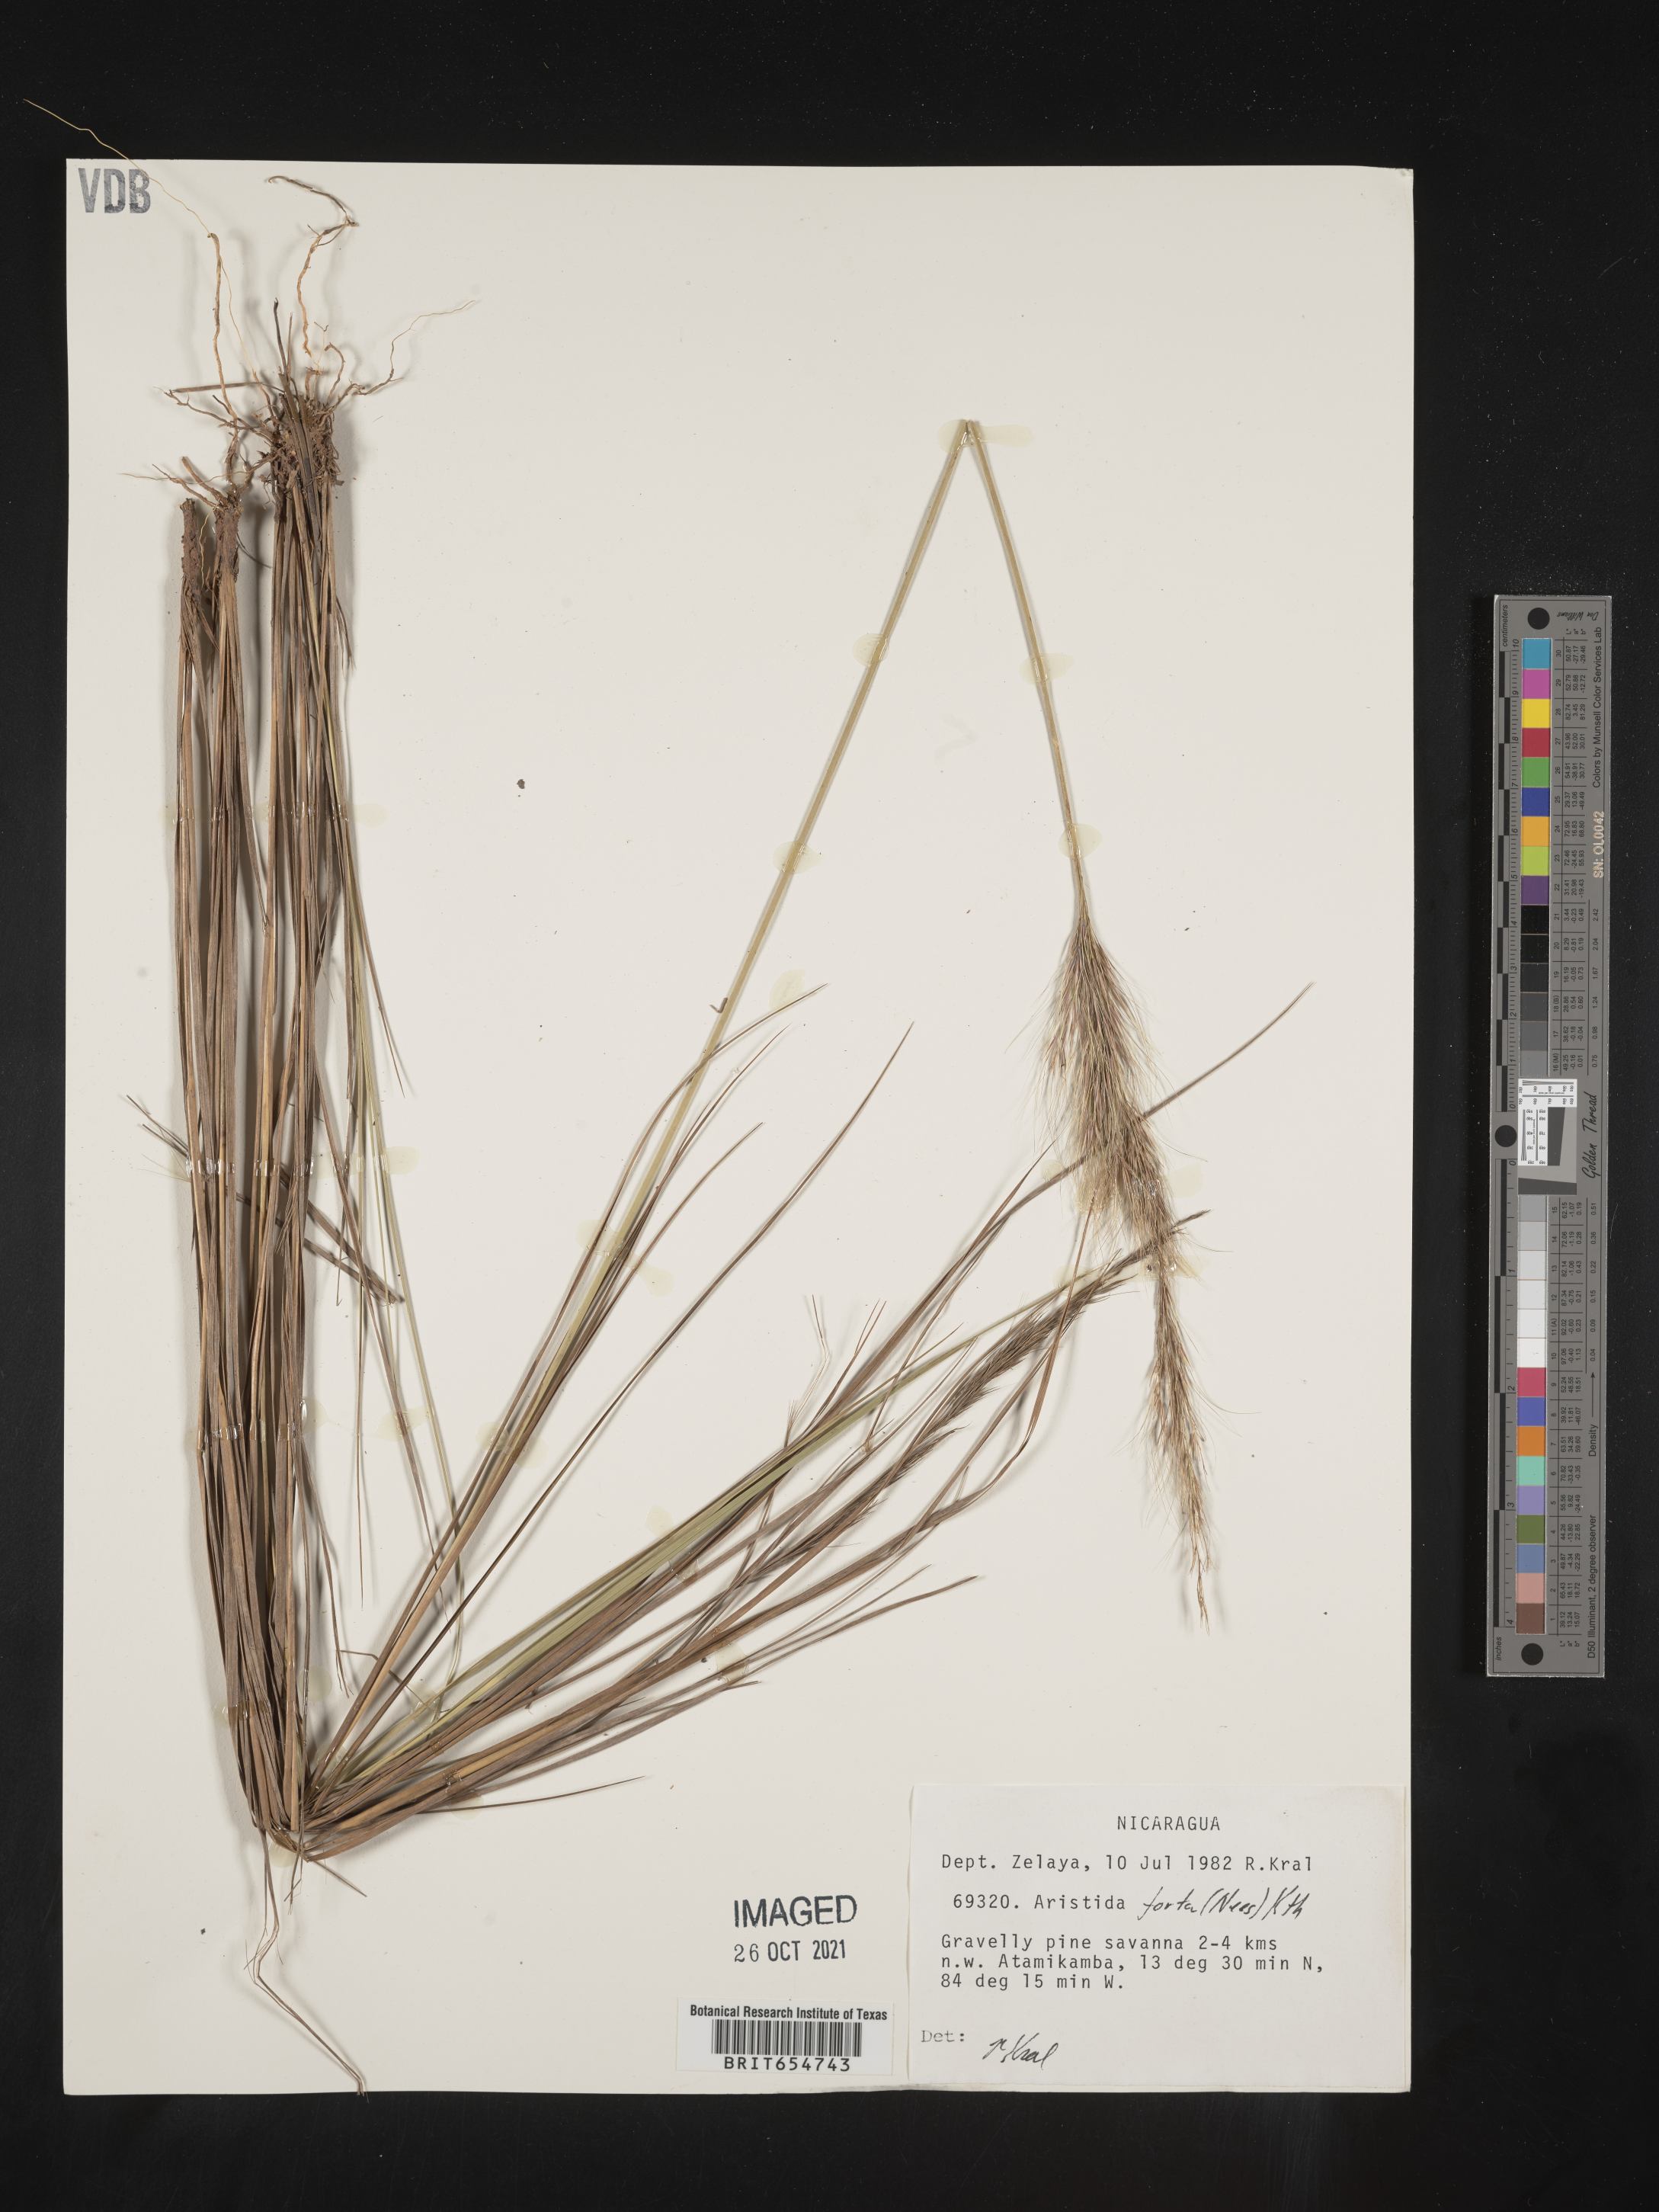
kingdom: Plantae
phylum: Tracheophyta
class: Liliopsida
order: Poales
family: Poaceae
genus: Aristida
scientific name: Aristida
